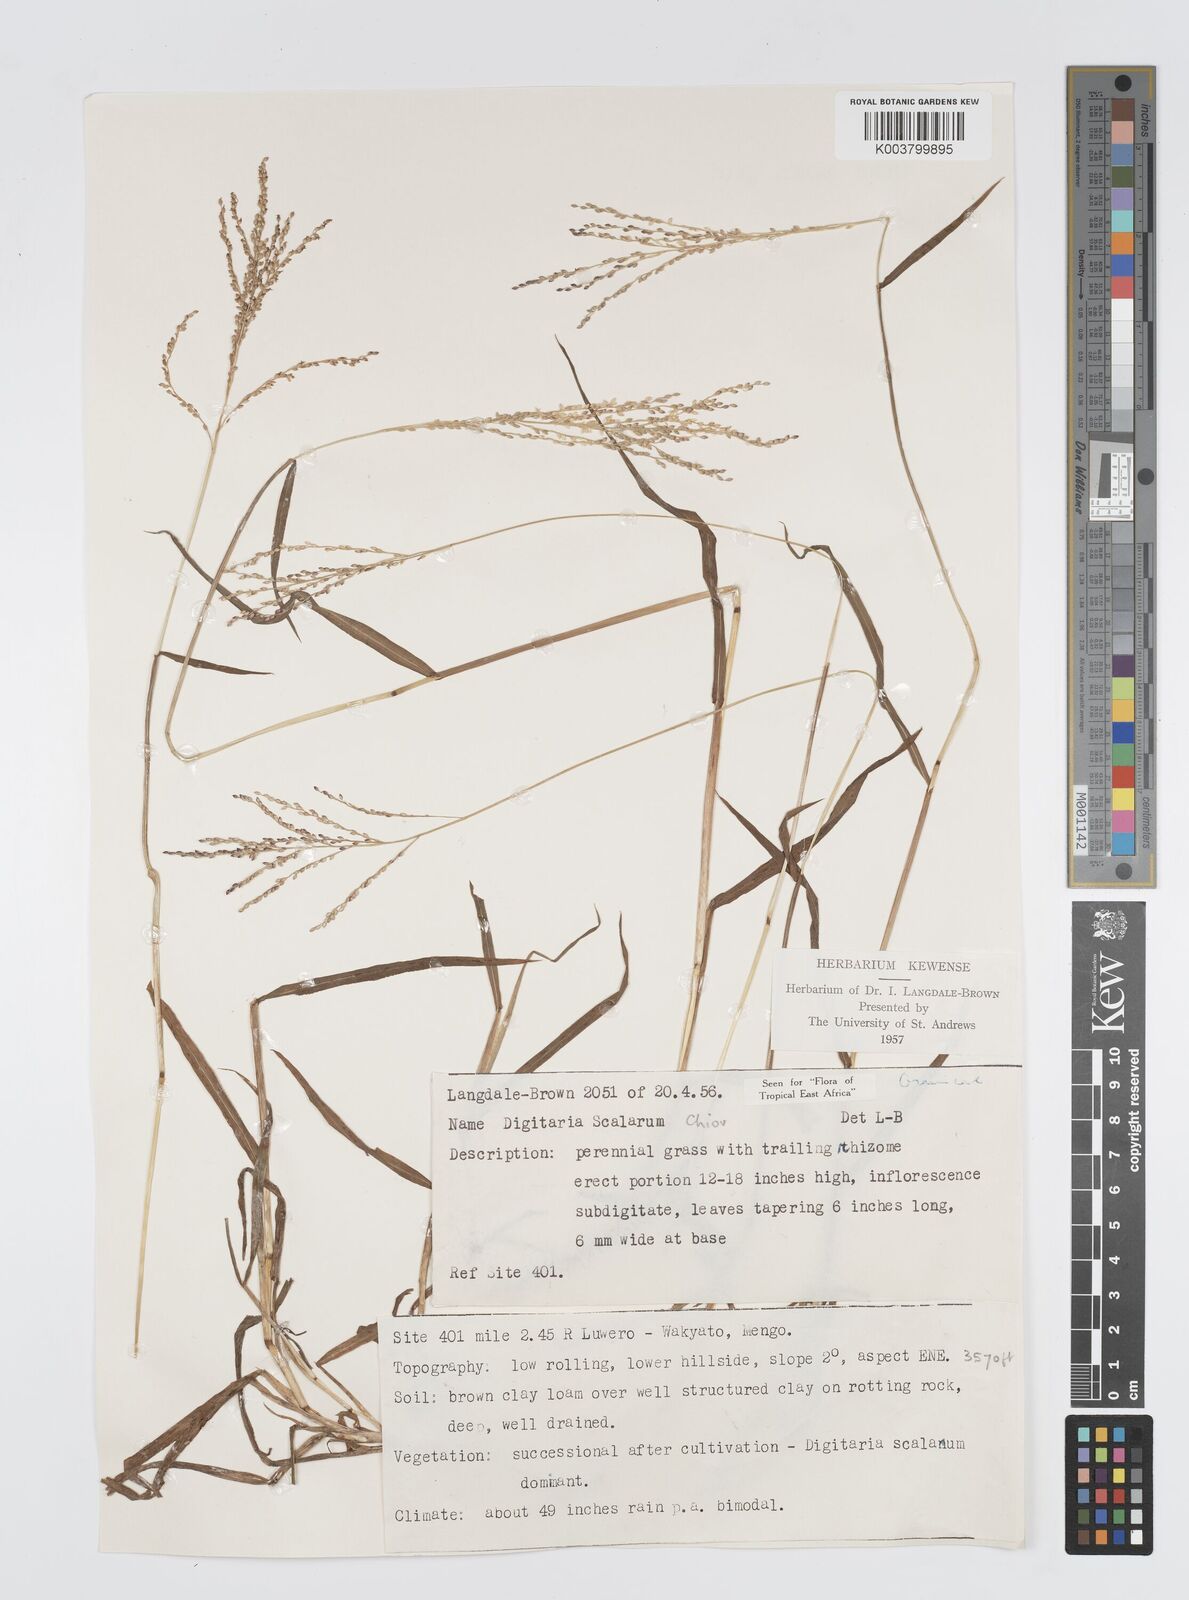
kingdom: Plantae
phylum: Tracheophyta
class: Liliopsida
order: Poales
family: Poaceae
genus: Digitaria
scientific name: Digitaria abyssinica
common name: African couchgrass
